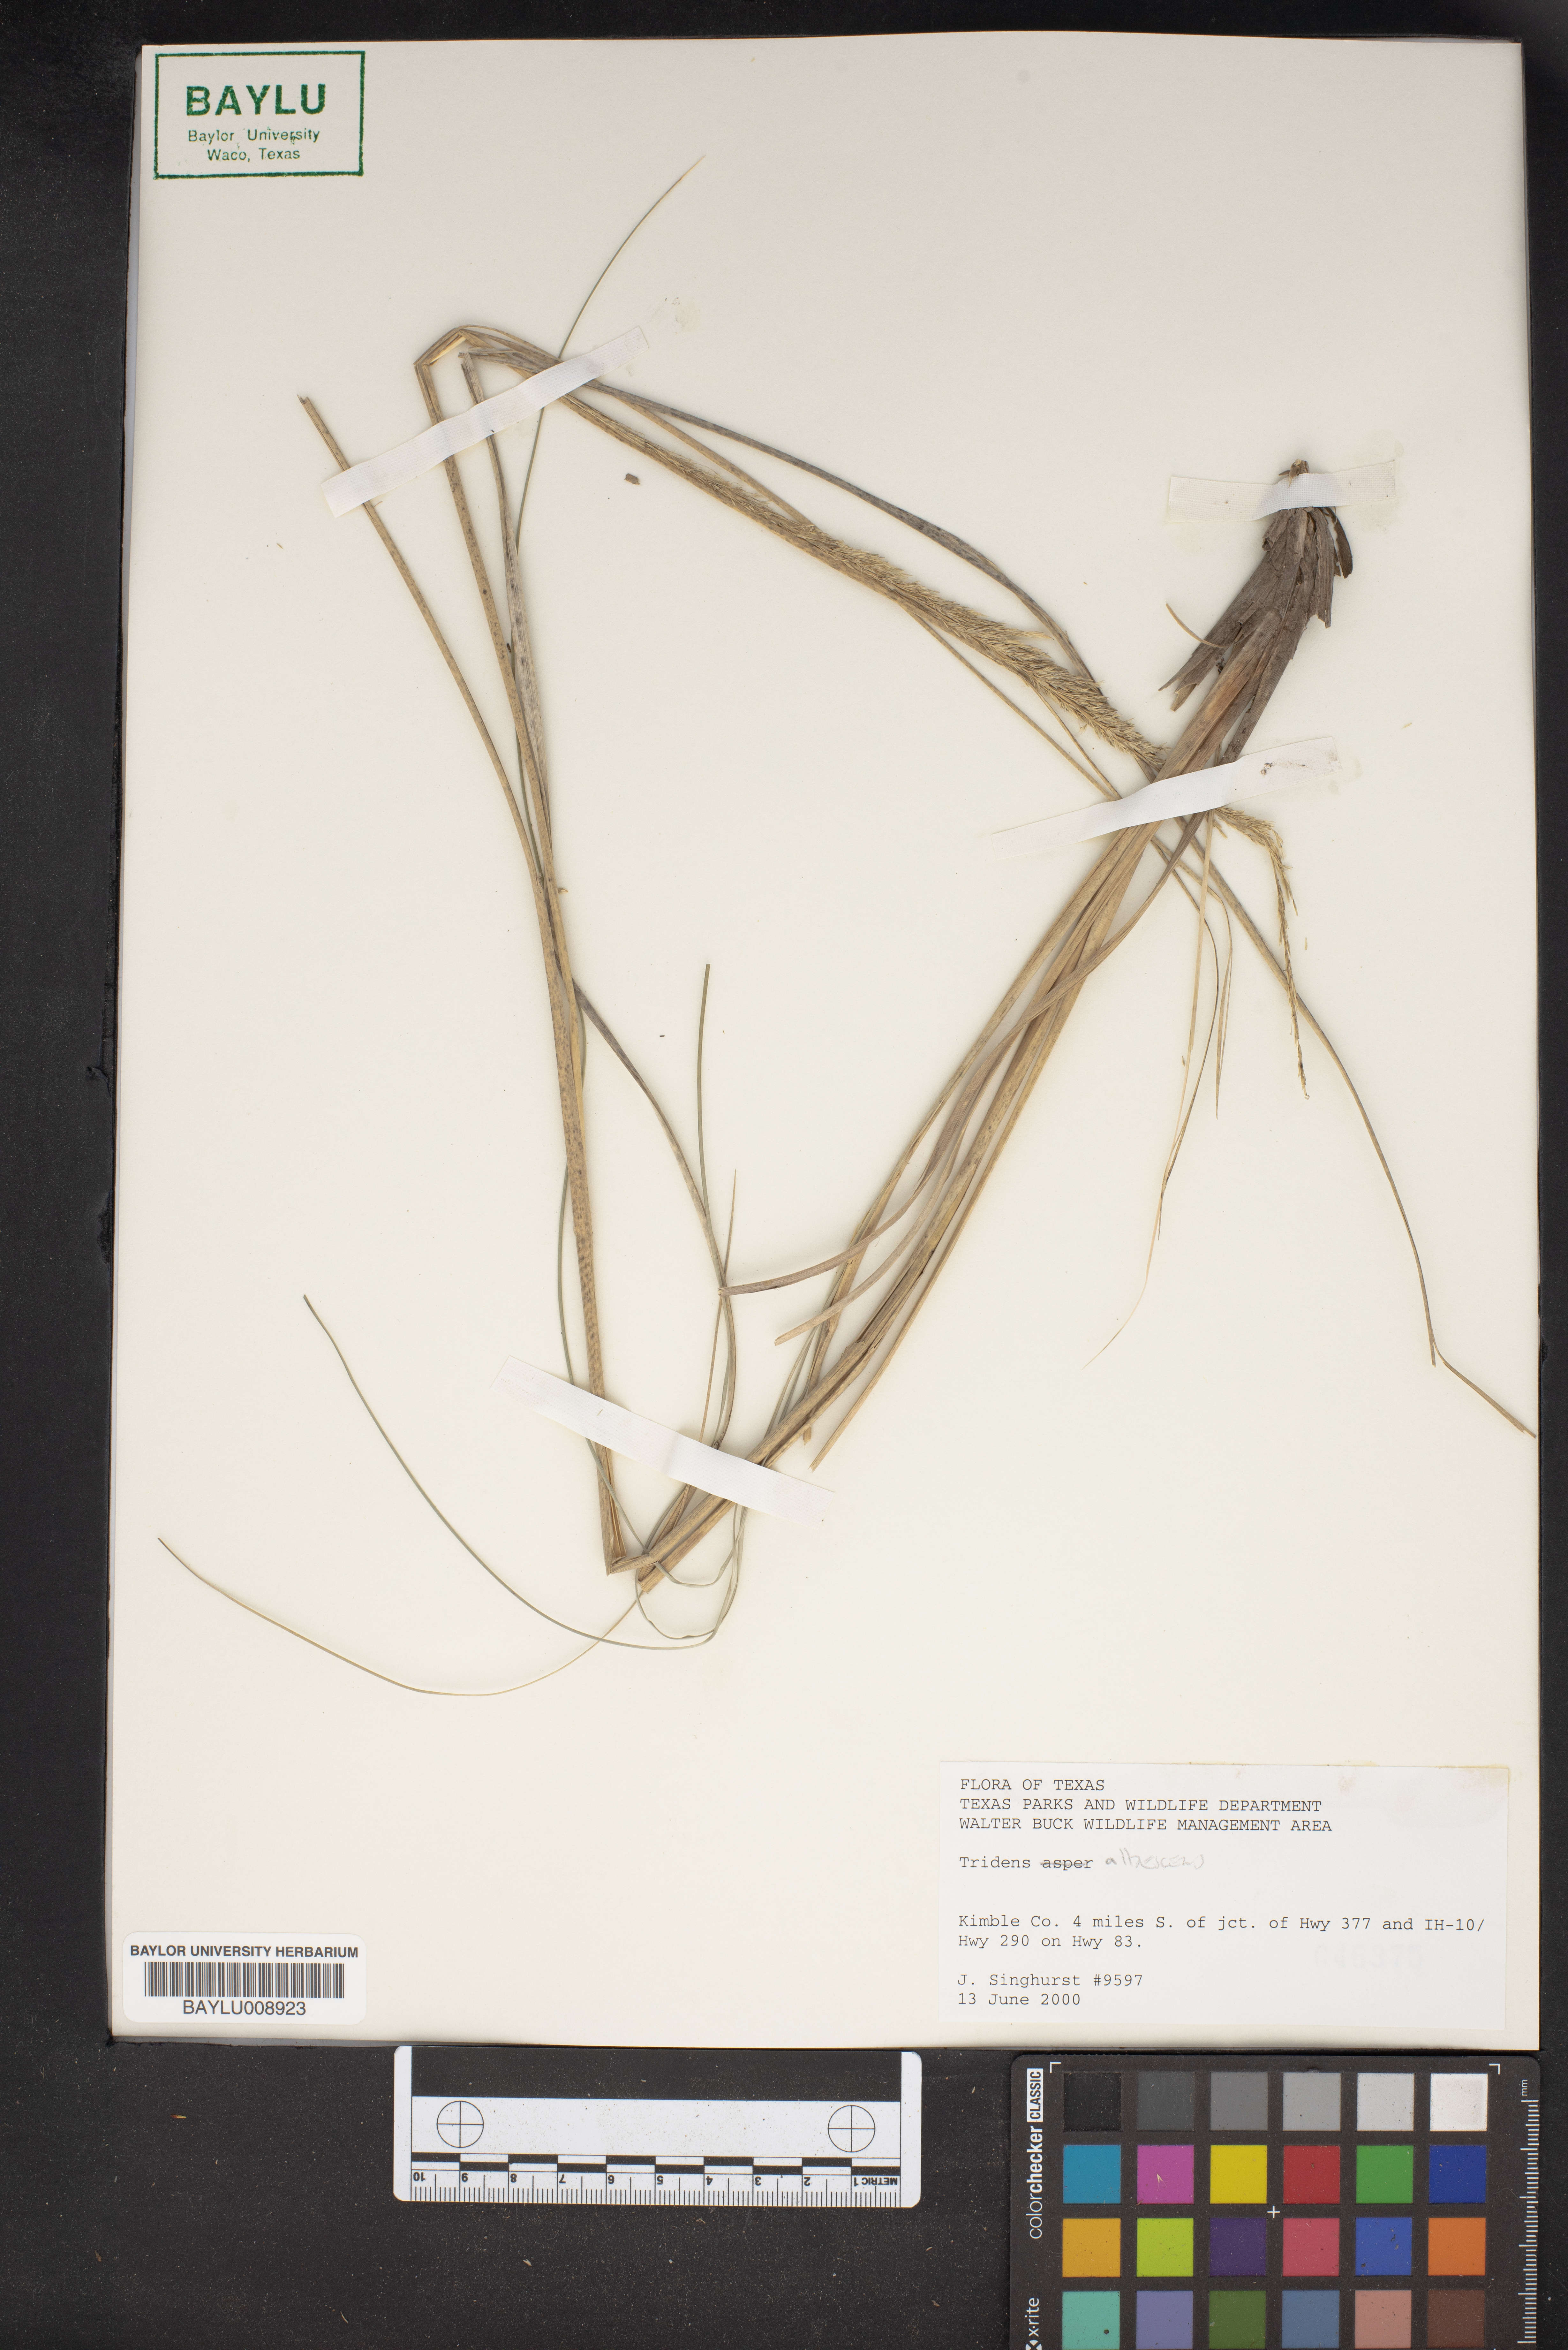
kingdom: Plantae
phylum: Tracheophyta
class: Liliopsida
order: Poales
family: Poaceae
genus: Tridens
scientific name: Tridens albescens
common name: White tridens
